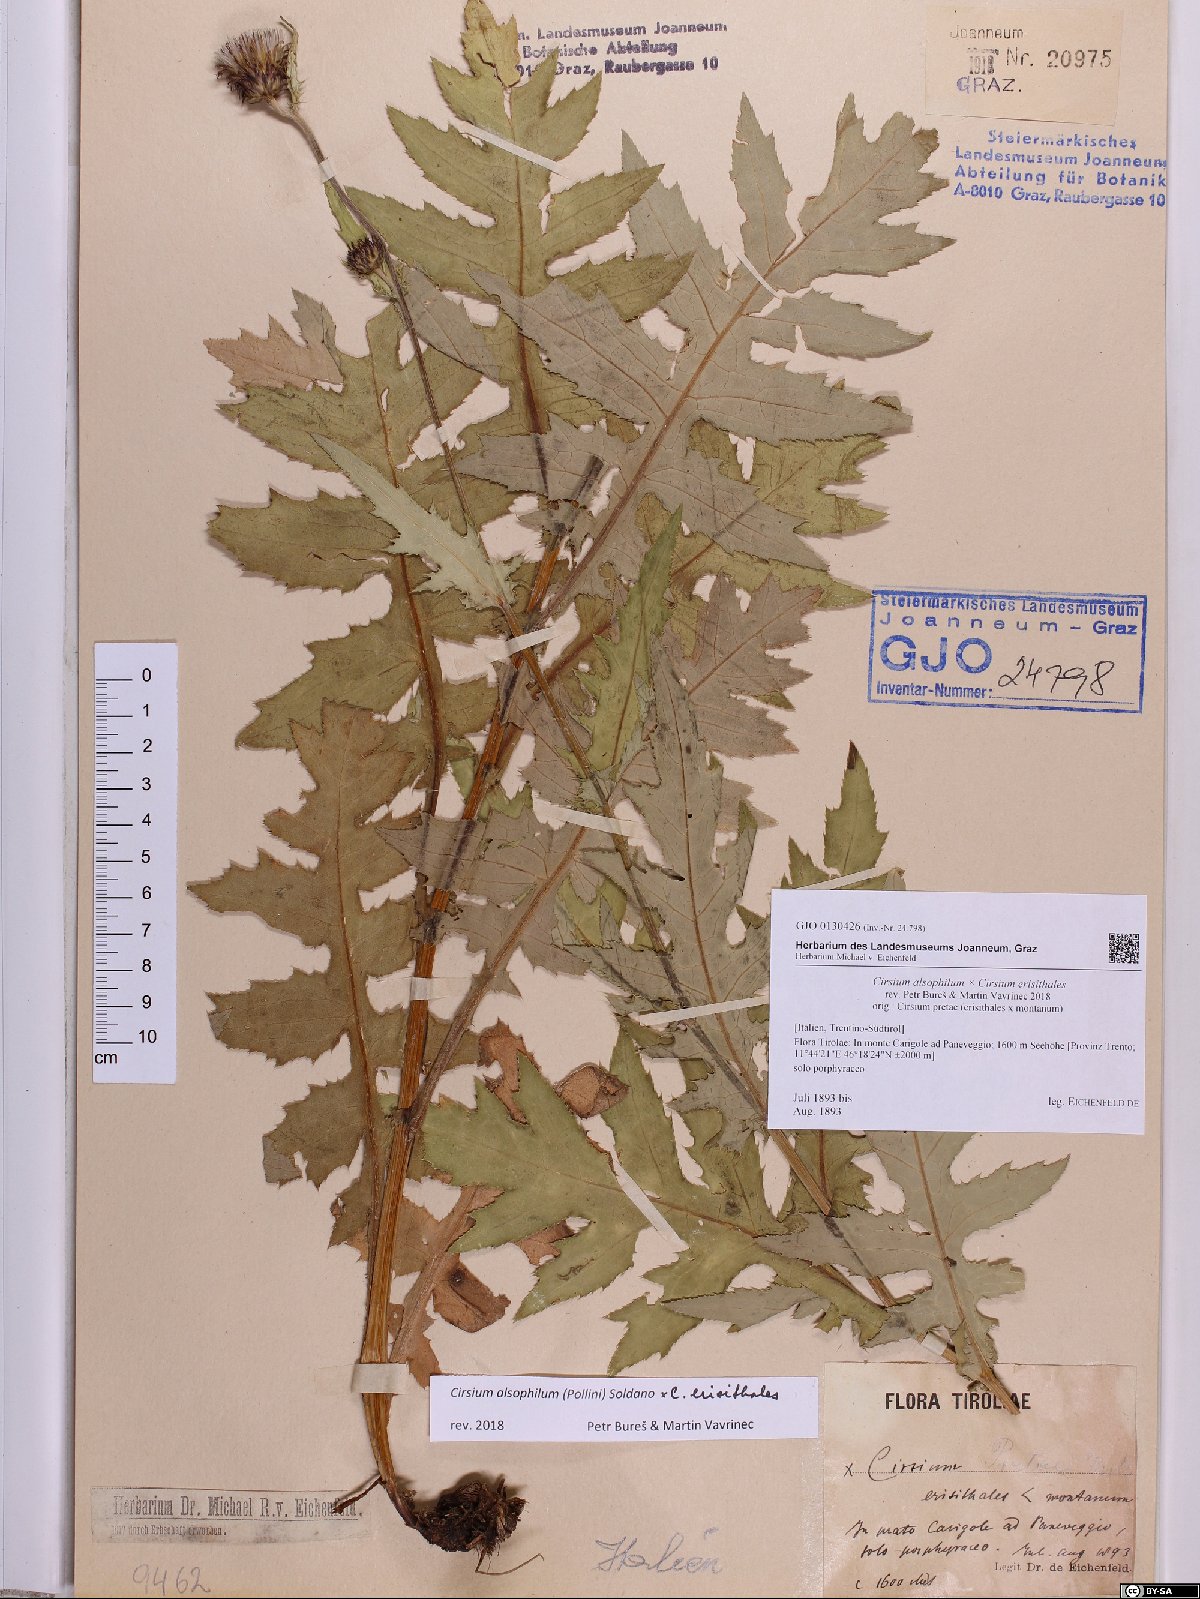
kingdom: Plantae
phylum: Tracheophyta
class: Magnoliopsida
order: Asterales
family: Asteraceae
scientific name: Asteraceae
